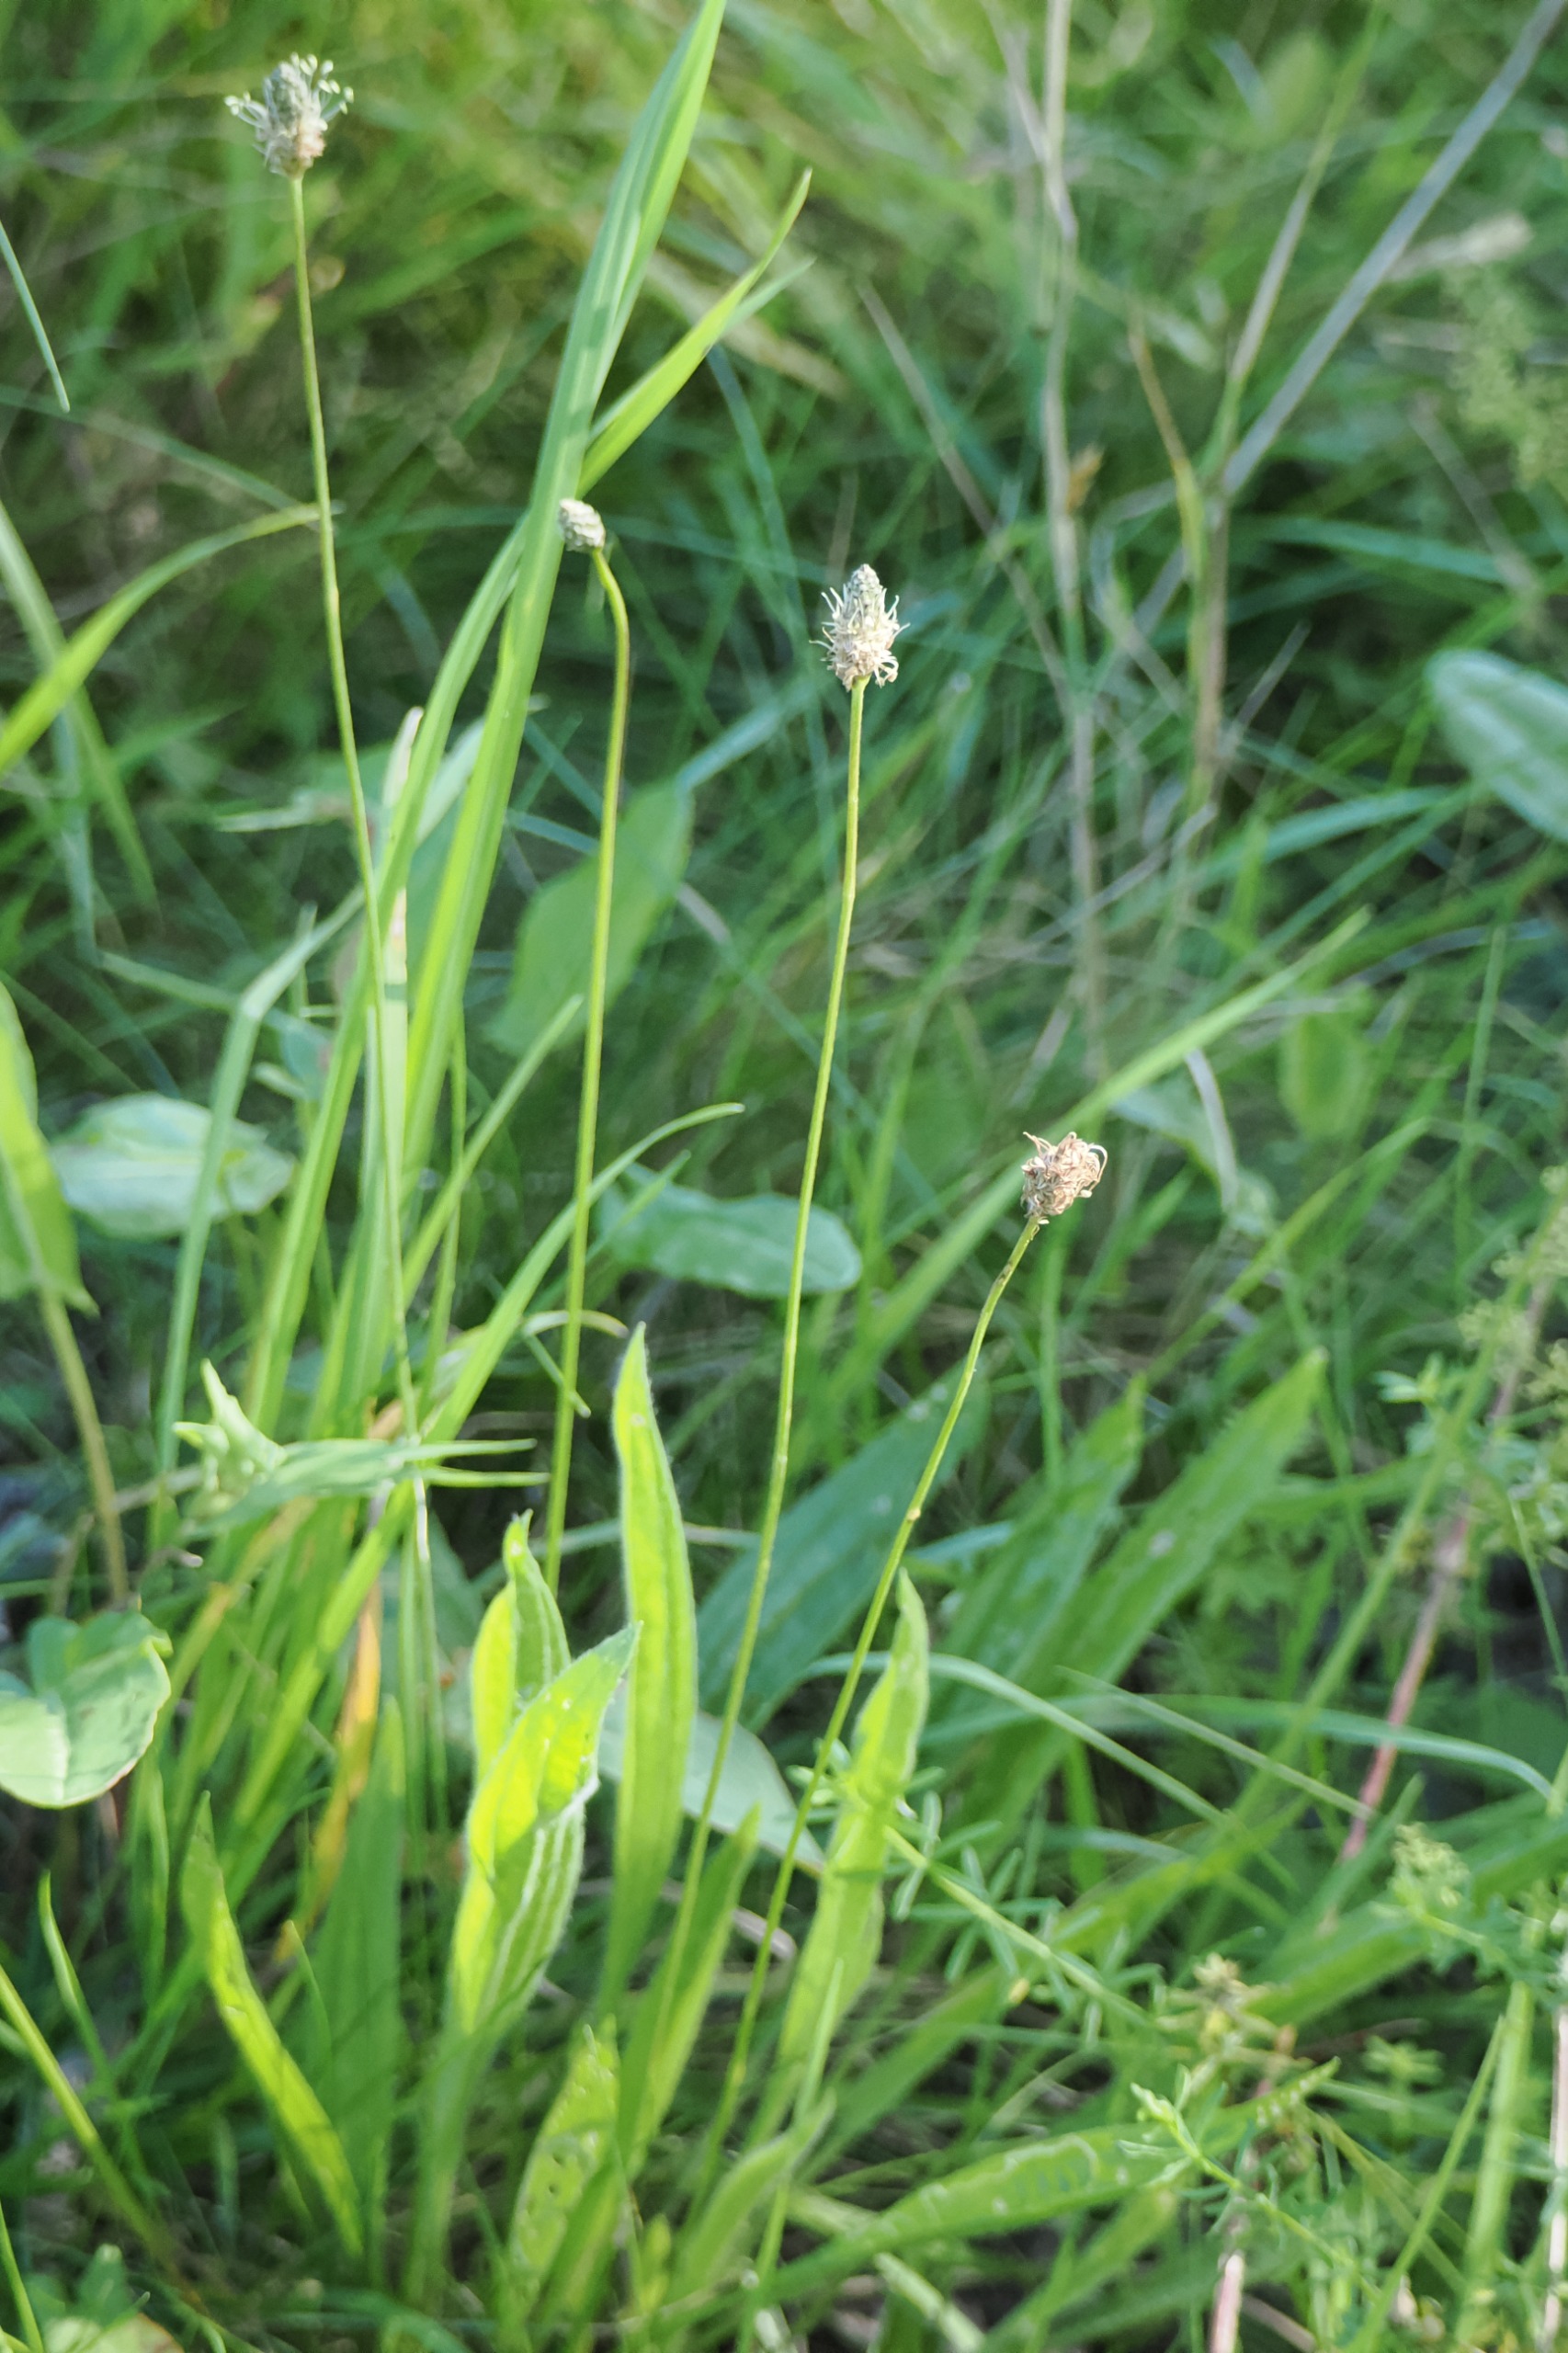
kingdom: Plantae
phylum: Tracheophyta
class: Magnoliopsida
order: Lamiales
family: Plantaginaceae
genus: Plantago
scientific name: Plantago lanceolata
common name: Lancet-vejbred
